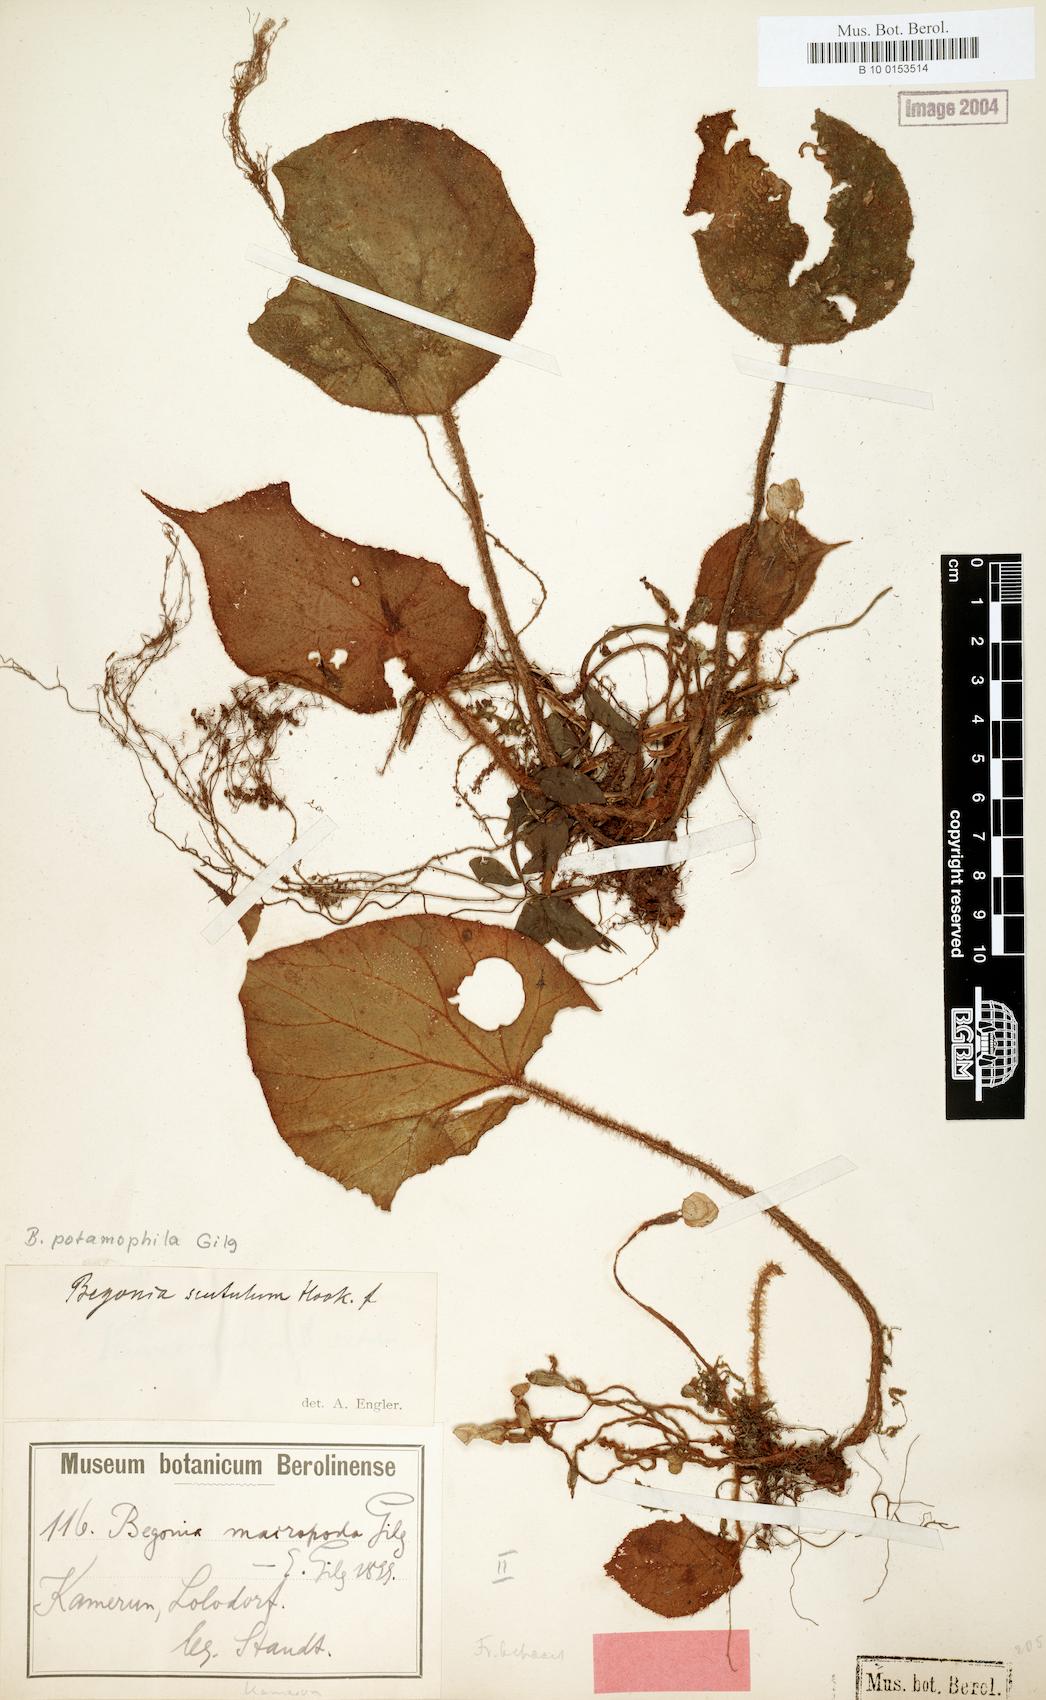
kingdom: Plantae
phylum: Tracheophyta
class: Magnoliopsida
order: Cucurbitales
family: Begoniaceae
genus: Begonia
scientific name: Begonia potamophila
